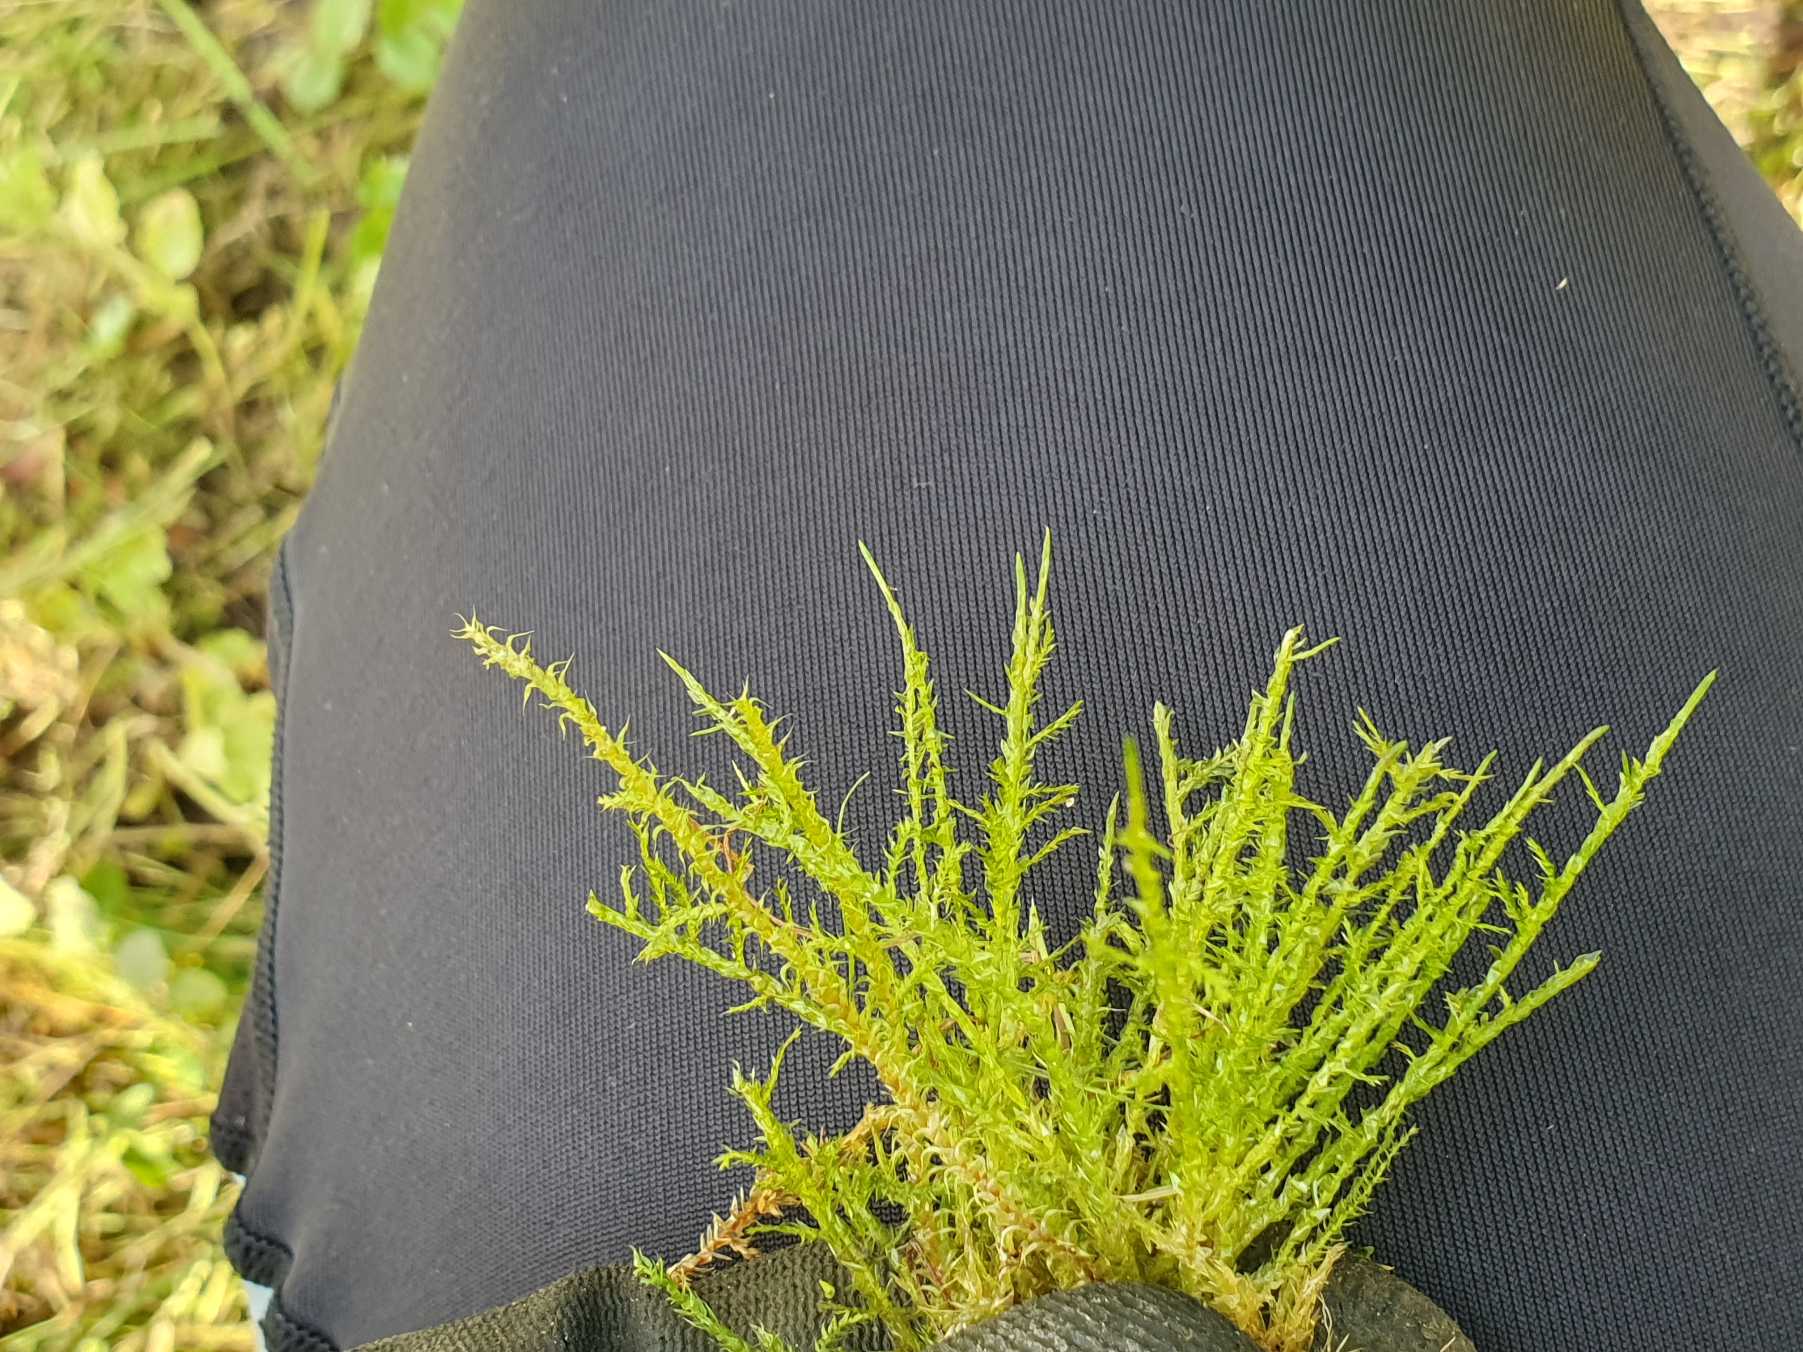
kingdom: Plantae
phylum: Bryophyta
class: Bryopsida
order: Hypnales
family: Pylaisiaceae
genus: Calliergonella
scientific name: Calliergonella cuspidata
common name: Spids spydmos
